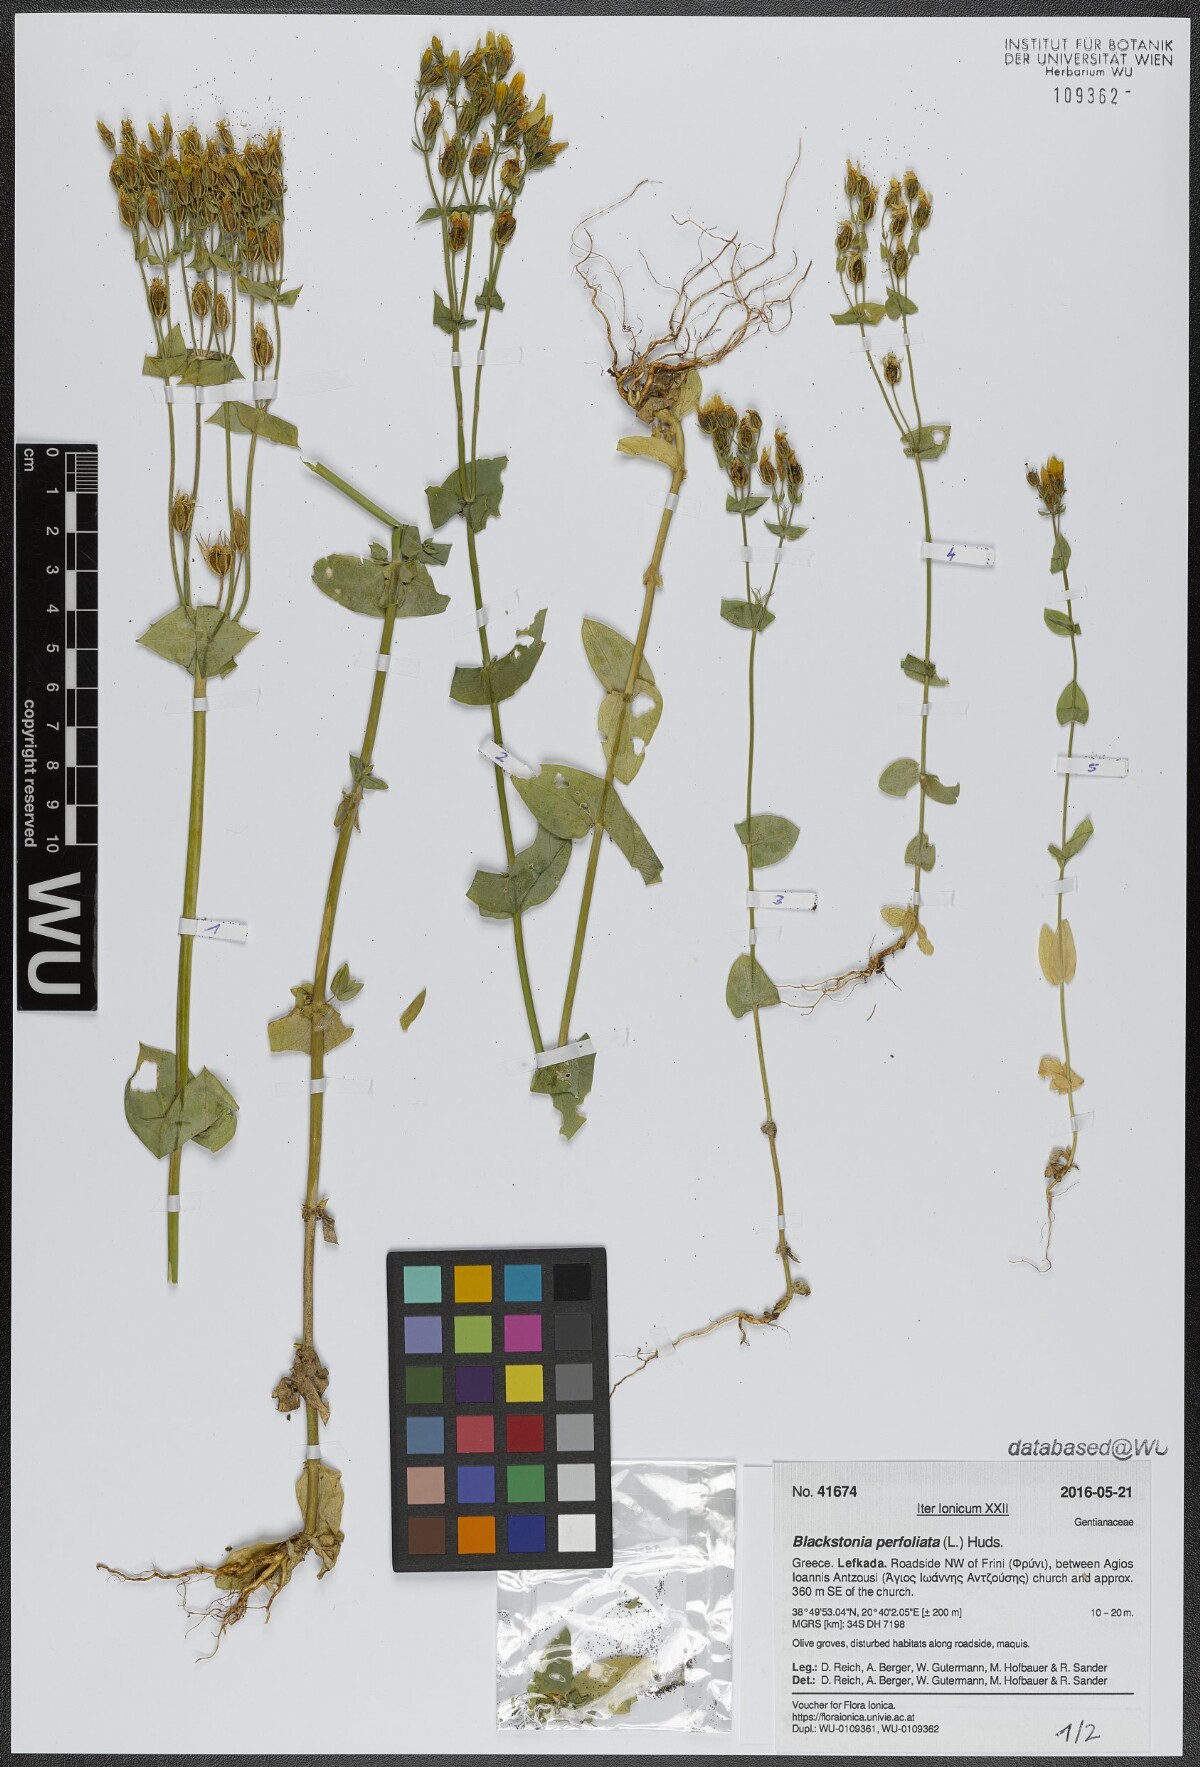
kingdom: Plantae
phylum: Tracheophyta
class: Magnoliopsida
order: Gentianales
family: Gentianaceae
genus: Blackstonia
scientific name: Blackstonia perfoliata
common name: Yellow-wort
